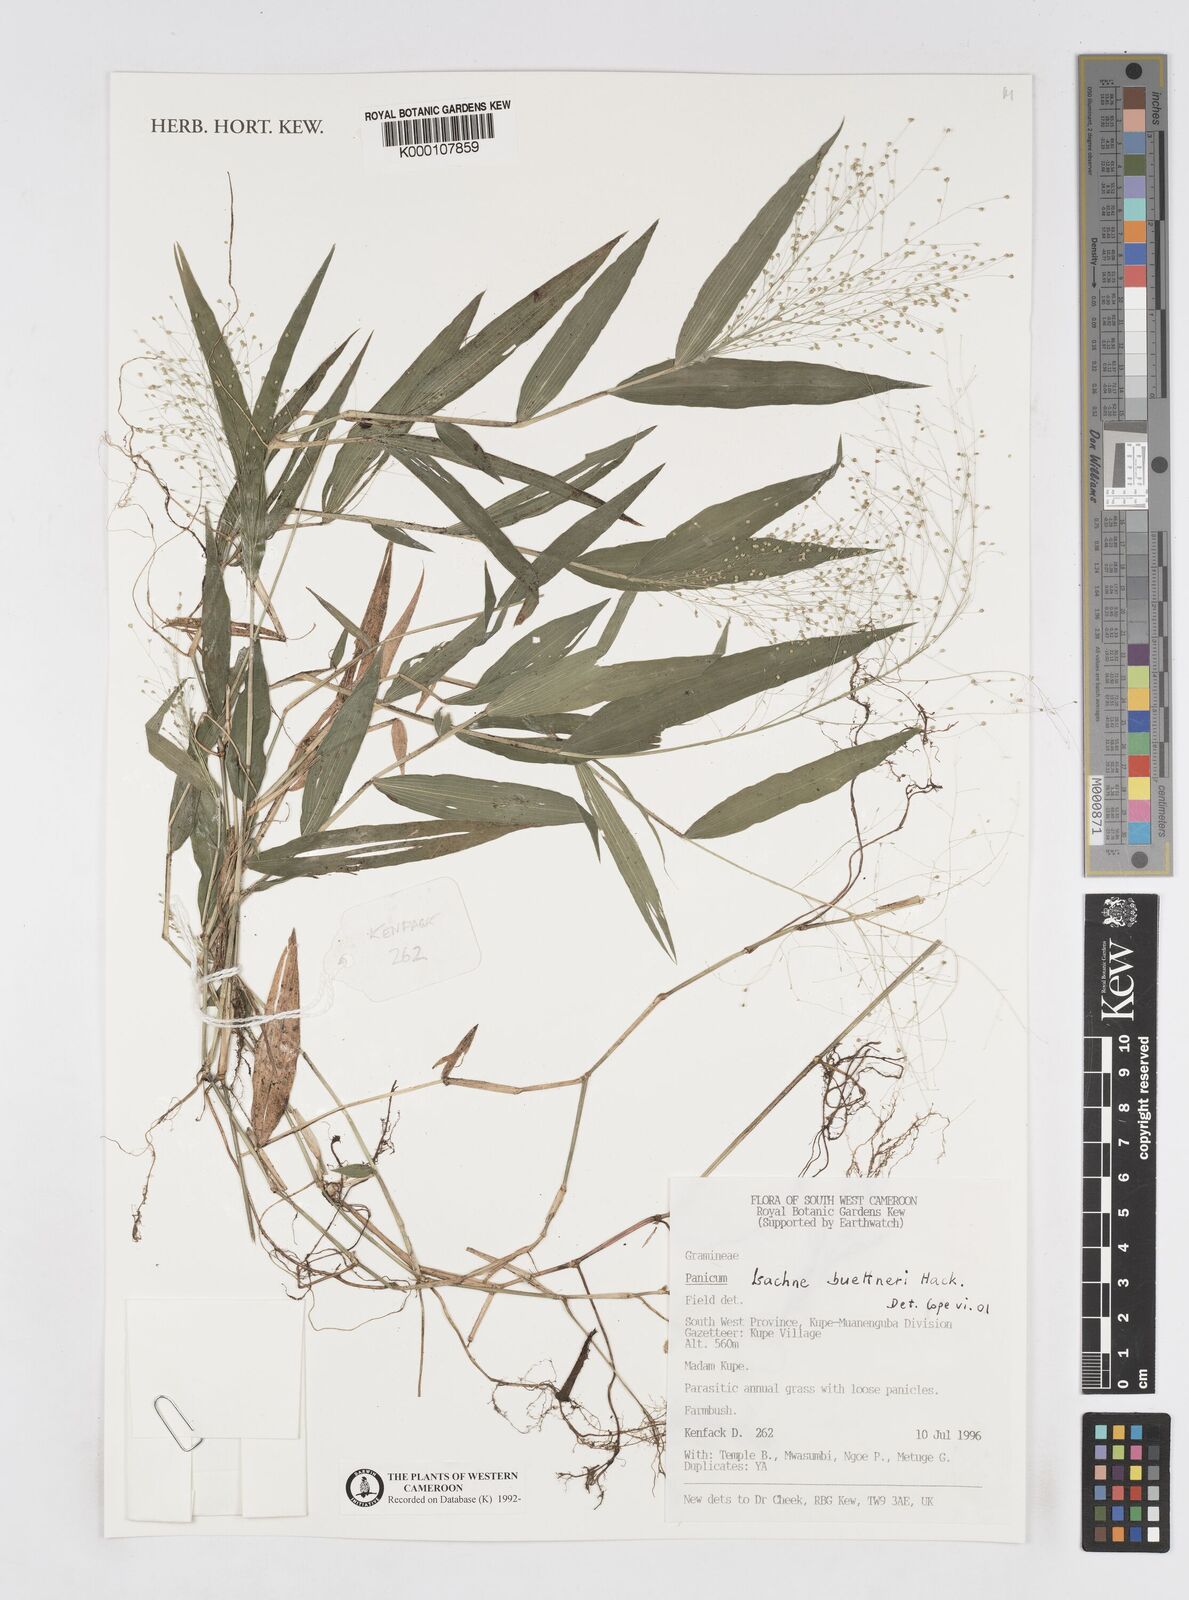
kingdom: Plantae
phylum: Tracheophyta
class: Liliopsida
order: Poales
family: Poaceae
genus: Isachne
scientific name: Isachne albens
